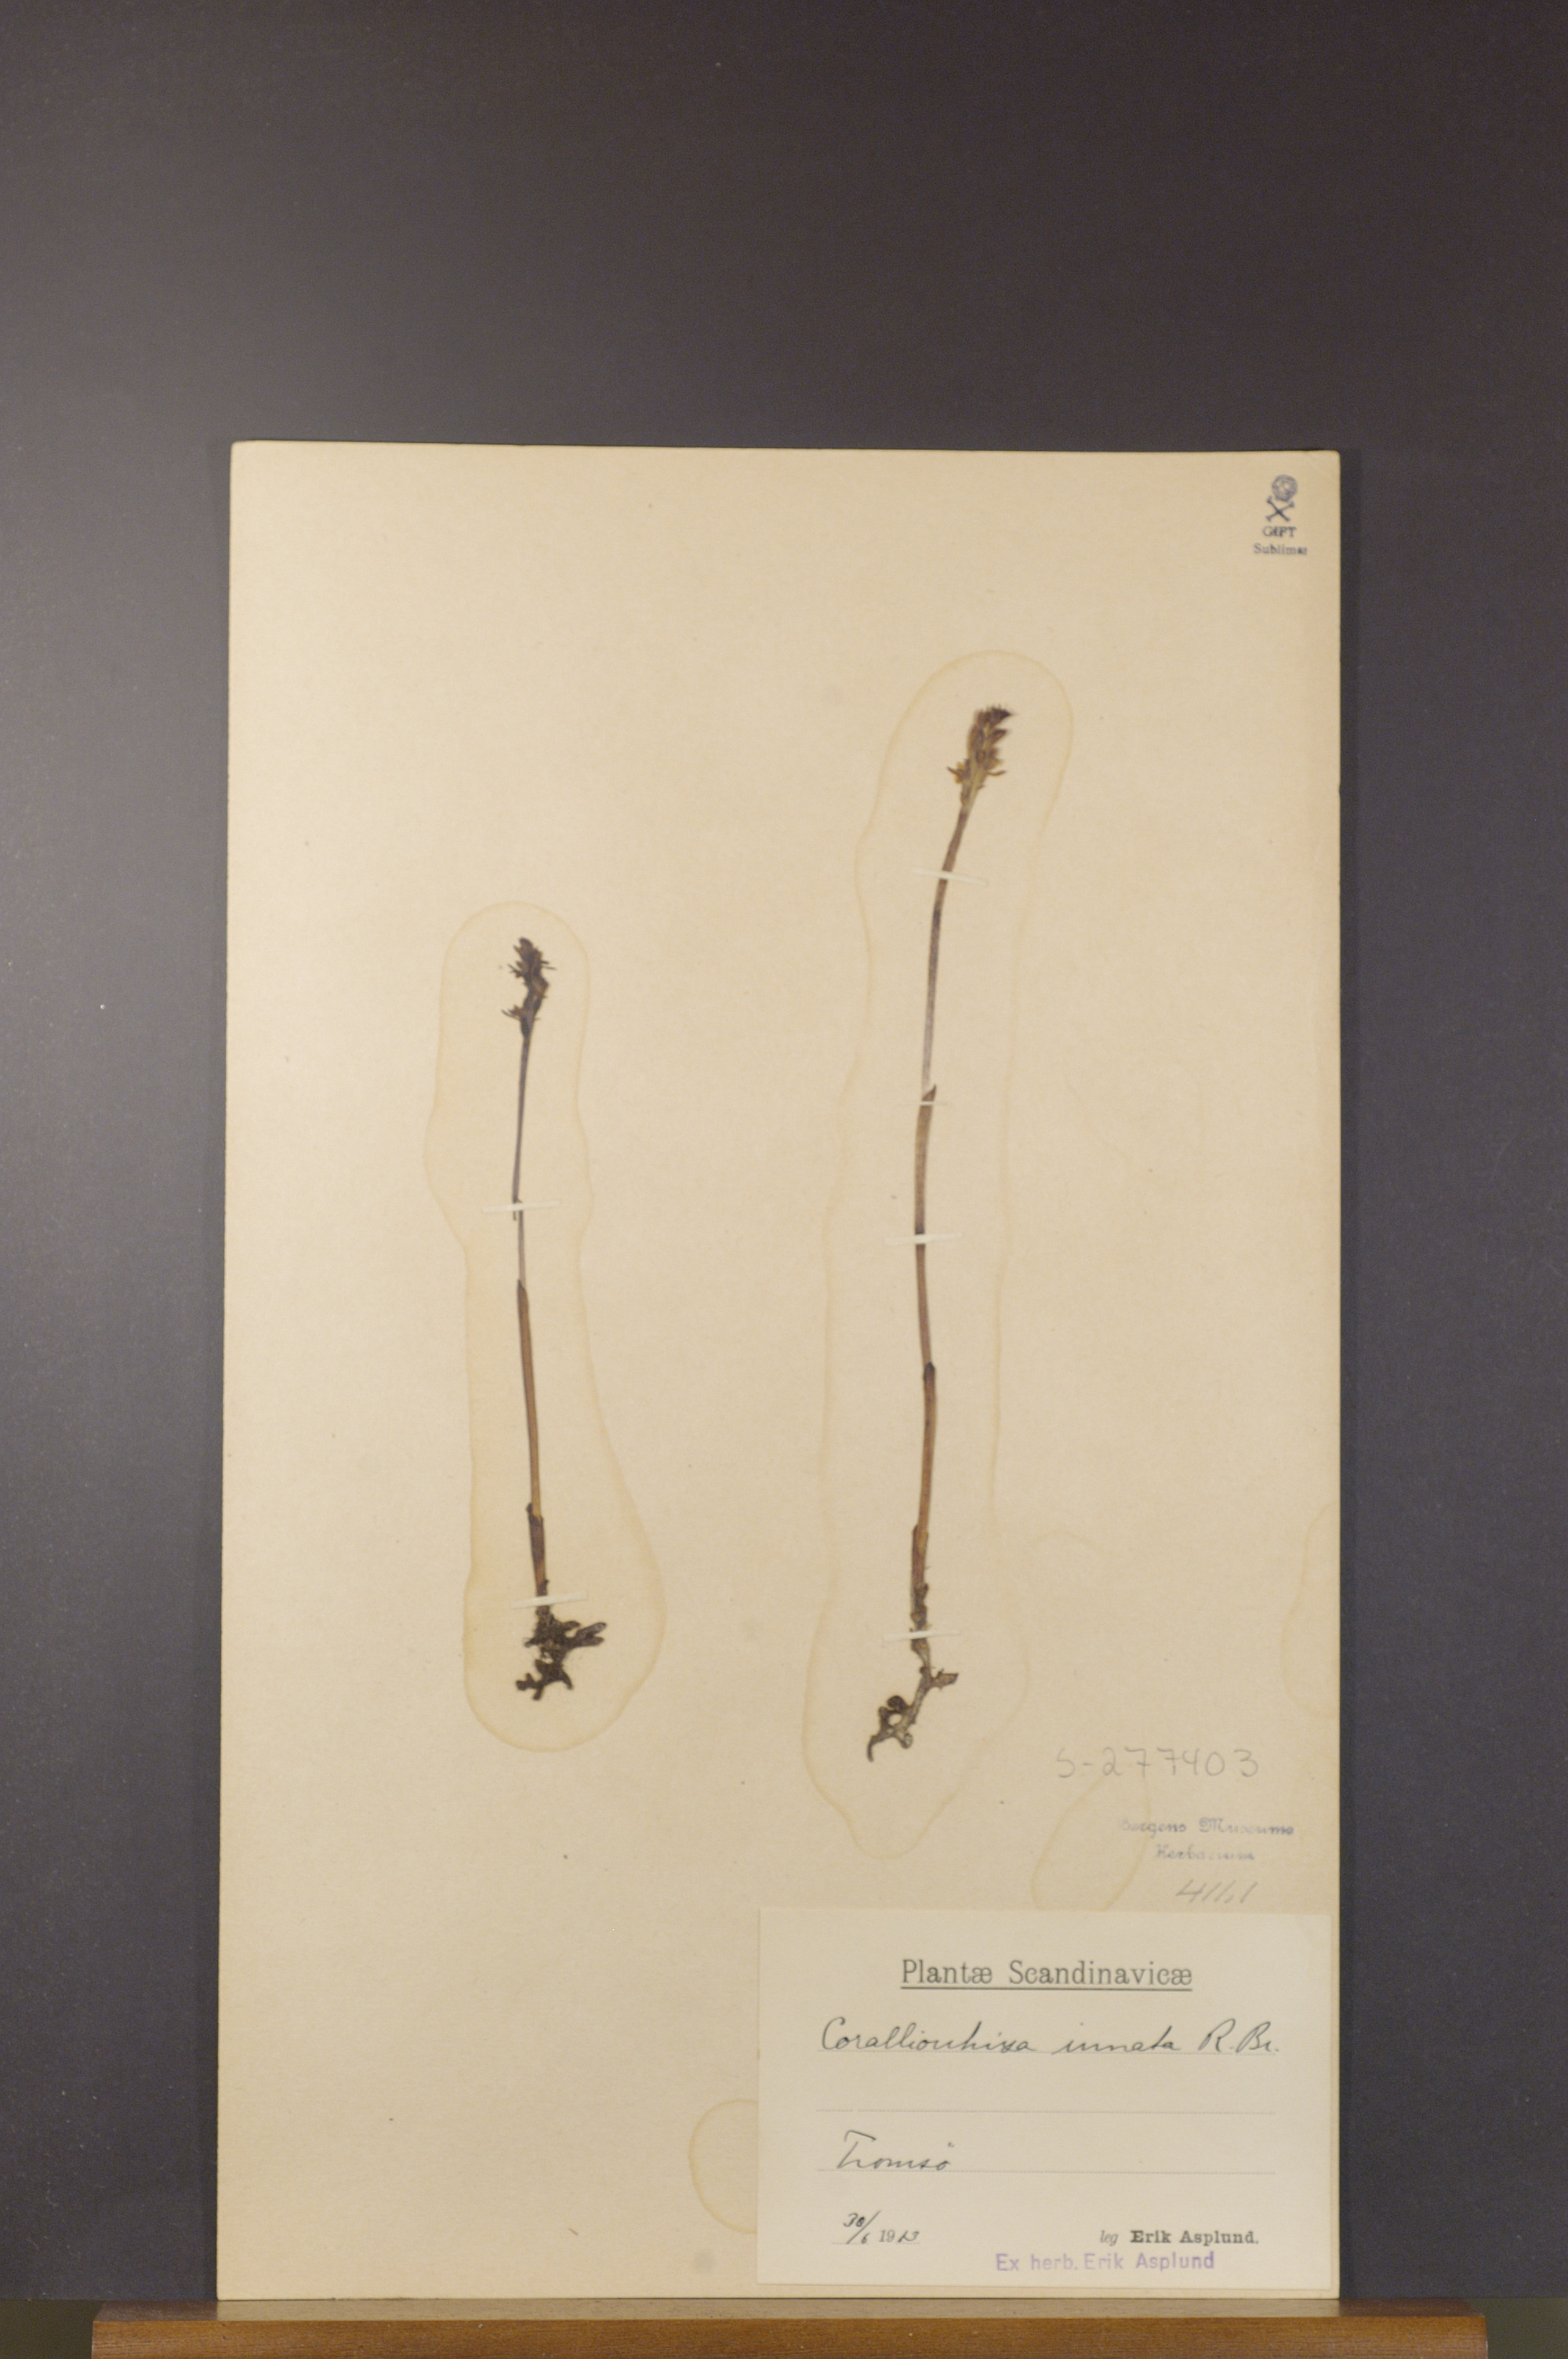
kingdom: Plantae
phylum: Tracheophyta
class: Liliopsida
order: Asparagales
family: Orchidaceae
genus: Corallorhiza
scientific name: Corallorhiza trifida
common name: Yellow coralroot
